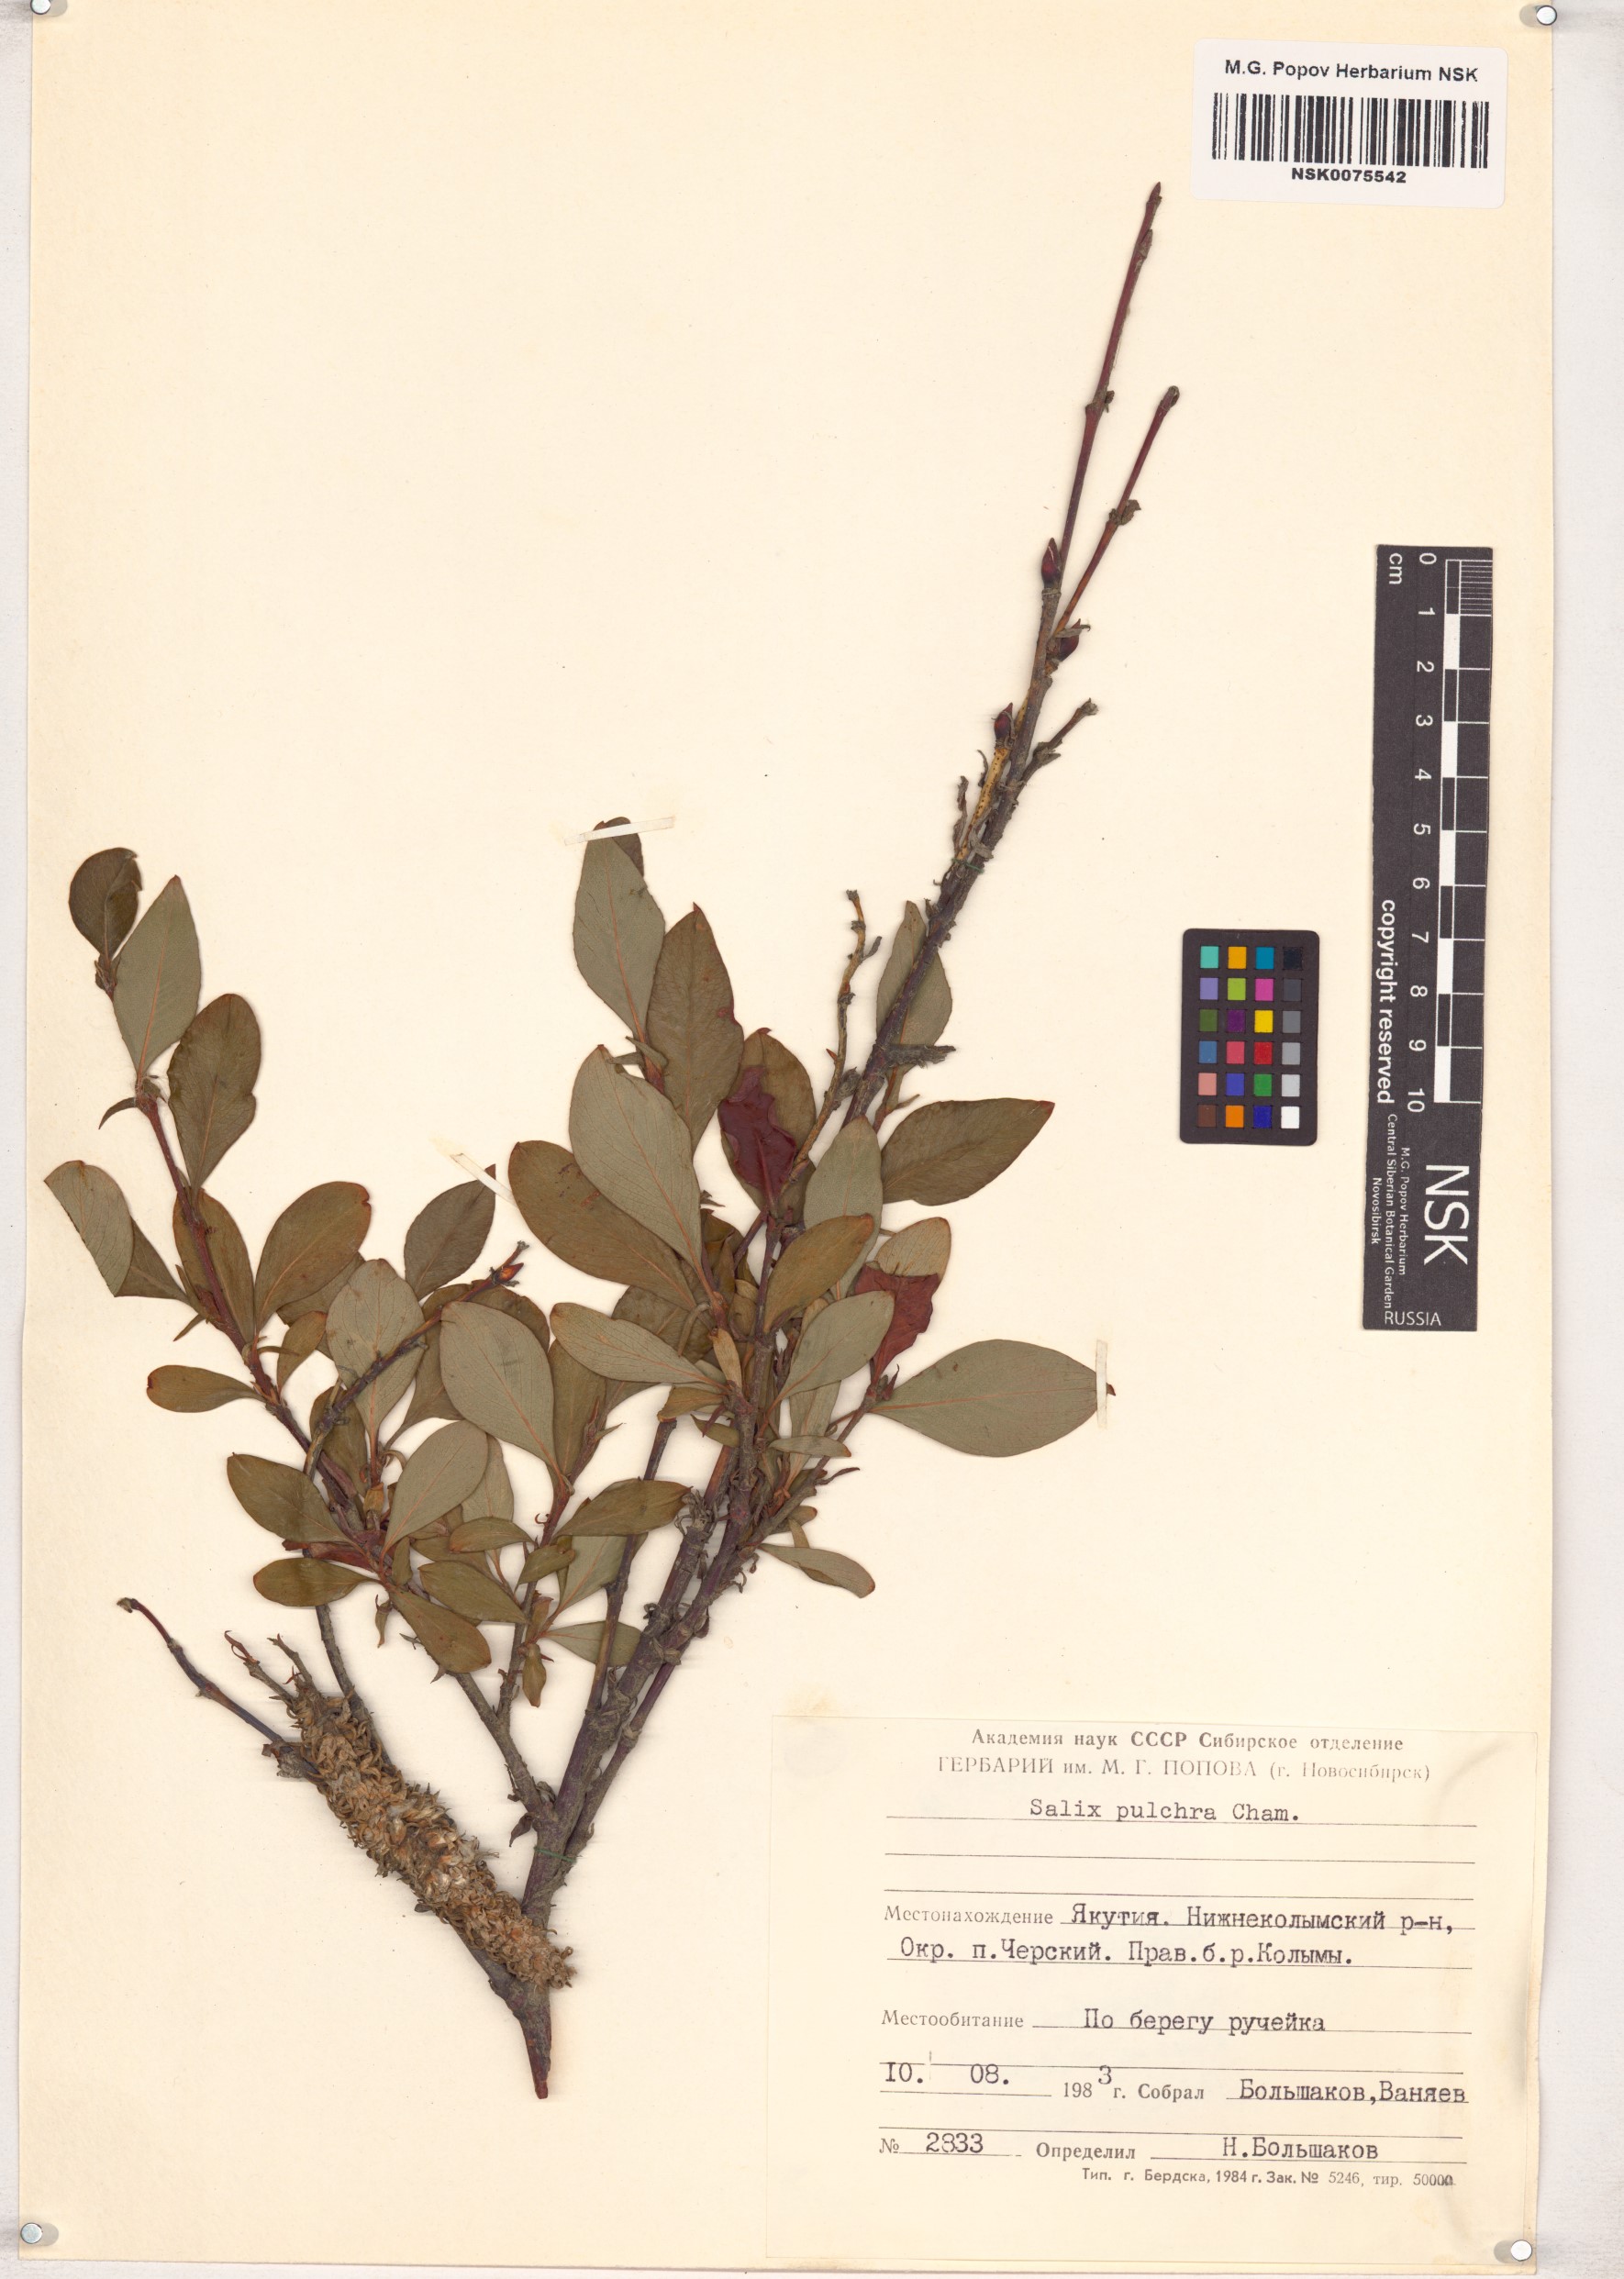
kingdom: Plantae
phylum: Tracheophyta
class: Magnoliopsida
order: Malpighiales
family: Salicaceae
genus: Salix
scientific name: Salix pulchra
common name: Diamond-leaved willow
